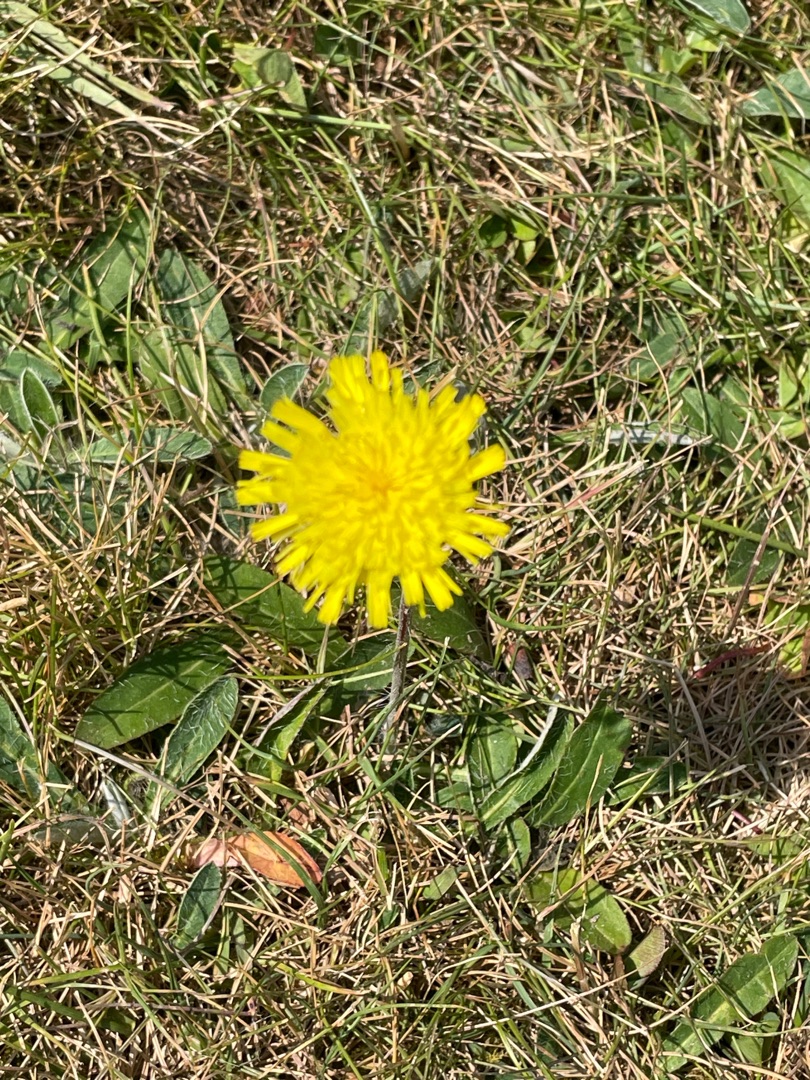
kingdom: Plantae
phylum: Tracheophyta
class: Magnoliopsida
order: Asterales
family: Asteraceae
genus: Pilosella
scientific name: Pilosella officinarum
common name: Håret høgeurt
